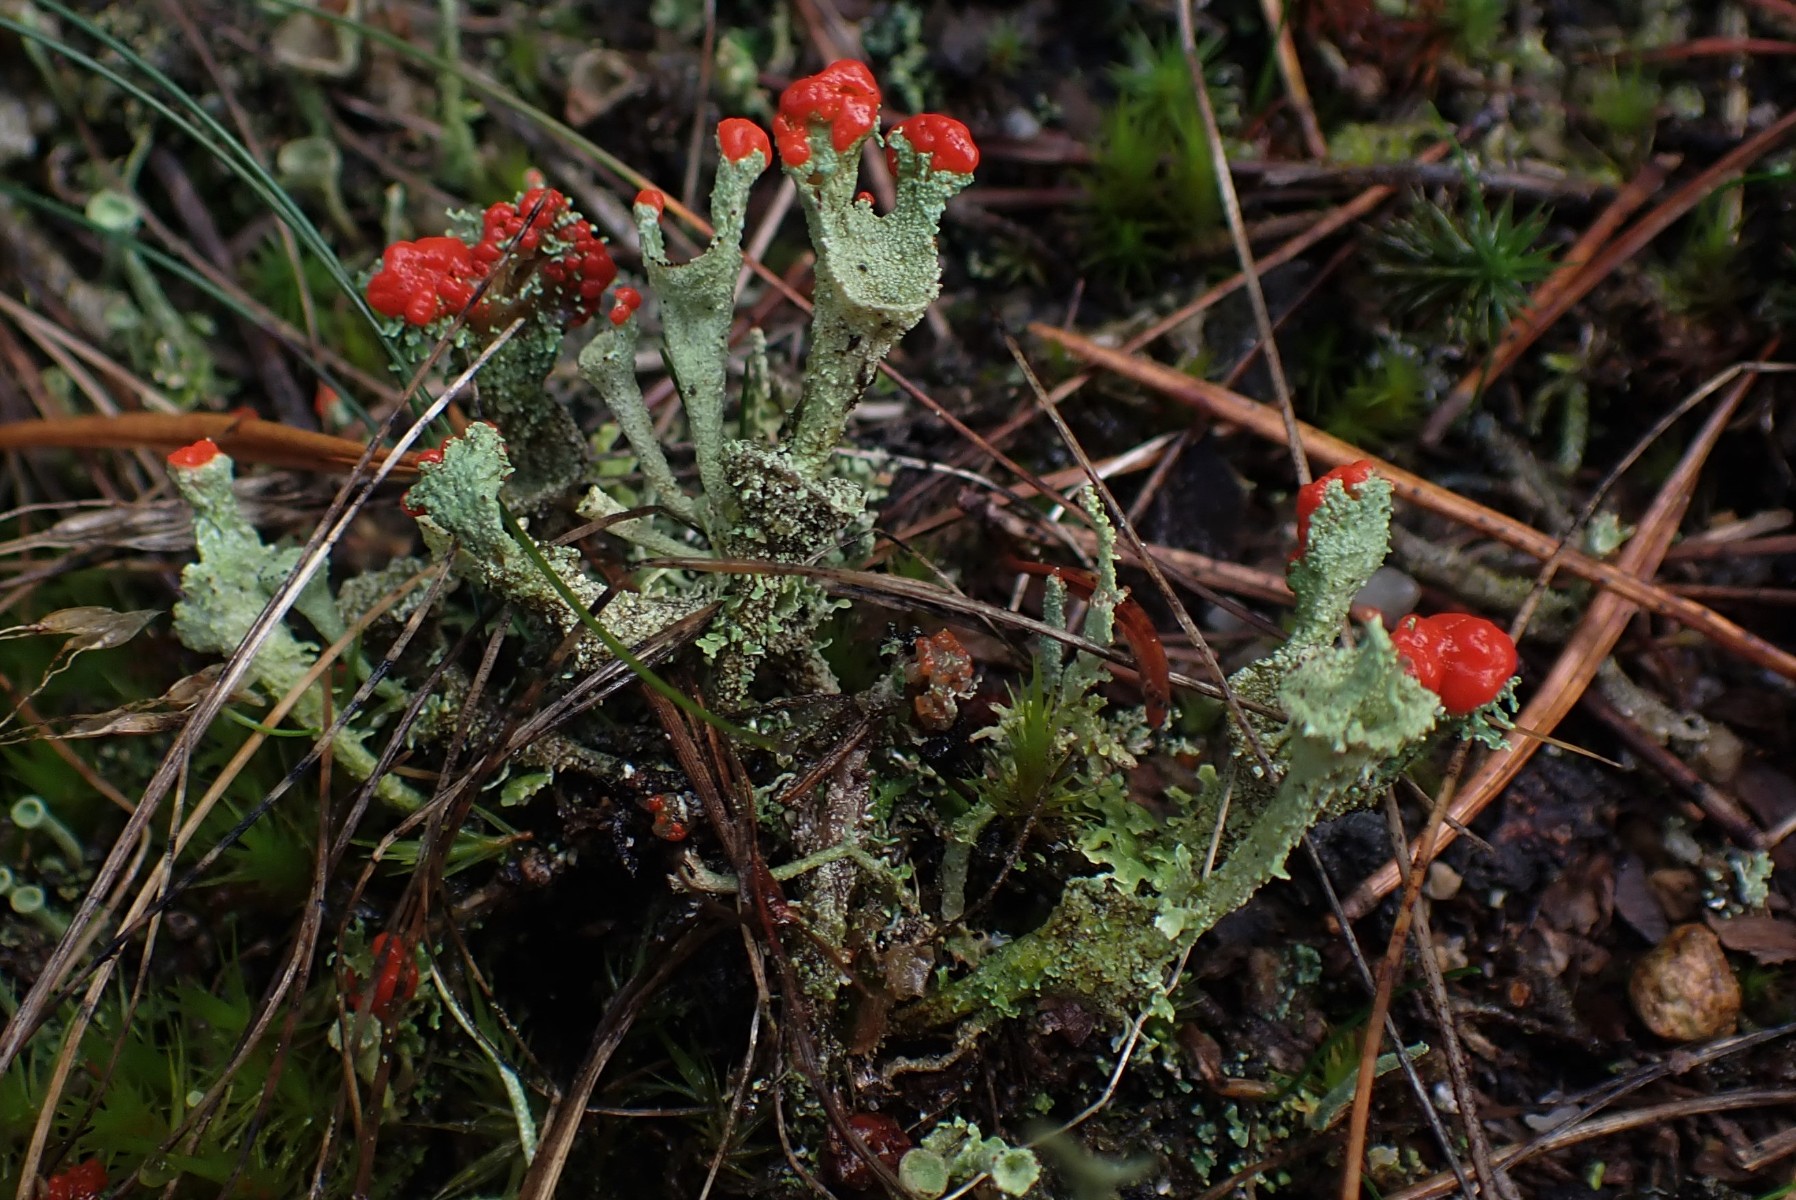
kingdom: Fungi
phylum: Ascomycota
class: Lecanoromycetes
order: Lecanorales
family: Cladoniaceae
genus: Cladonia
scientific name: Cladonia diversa
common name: rød bægerlav
